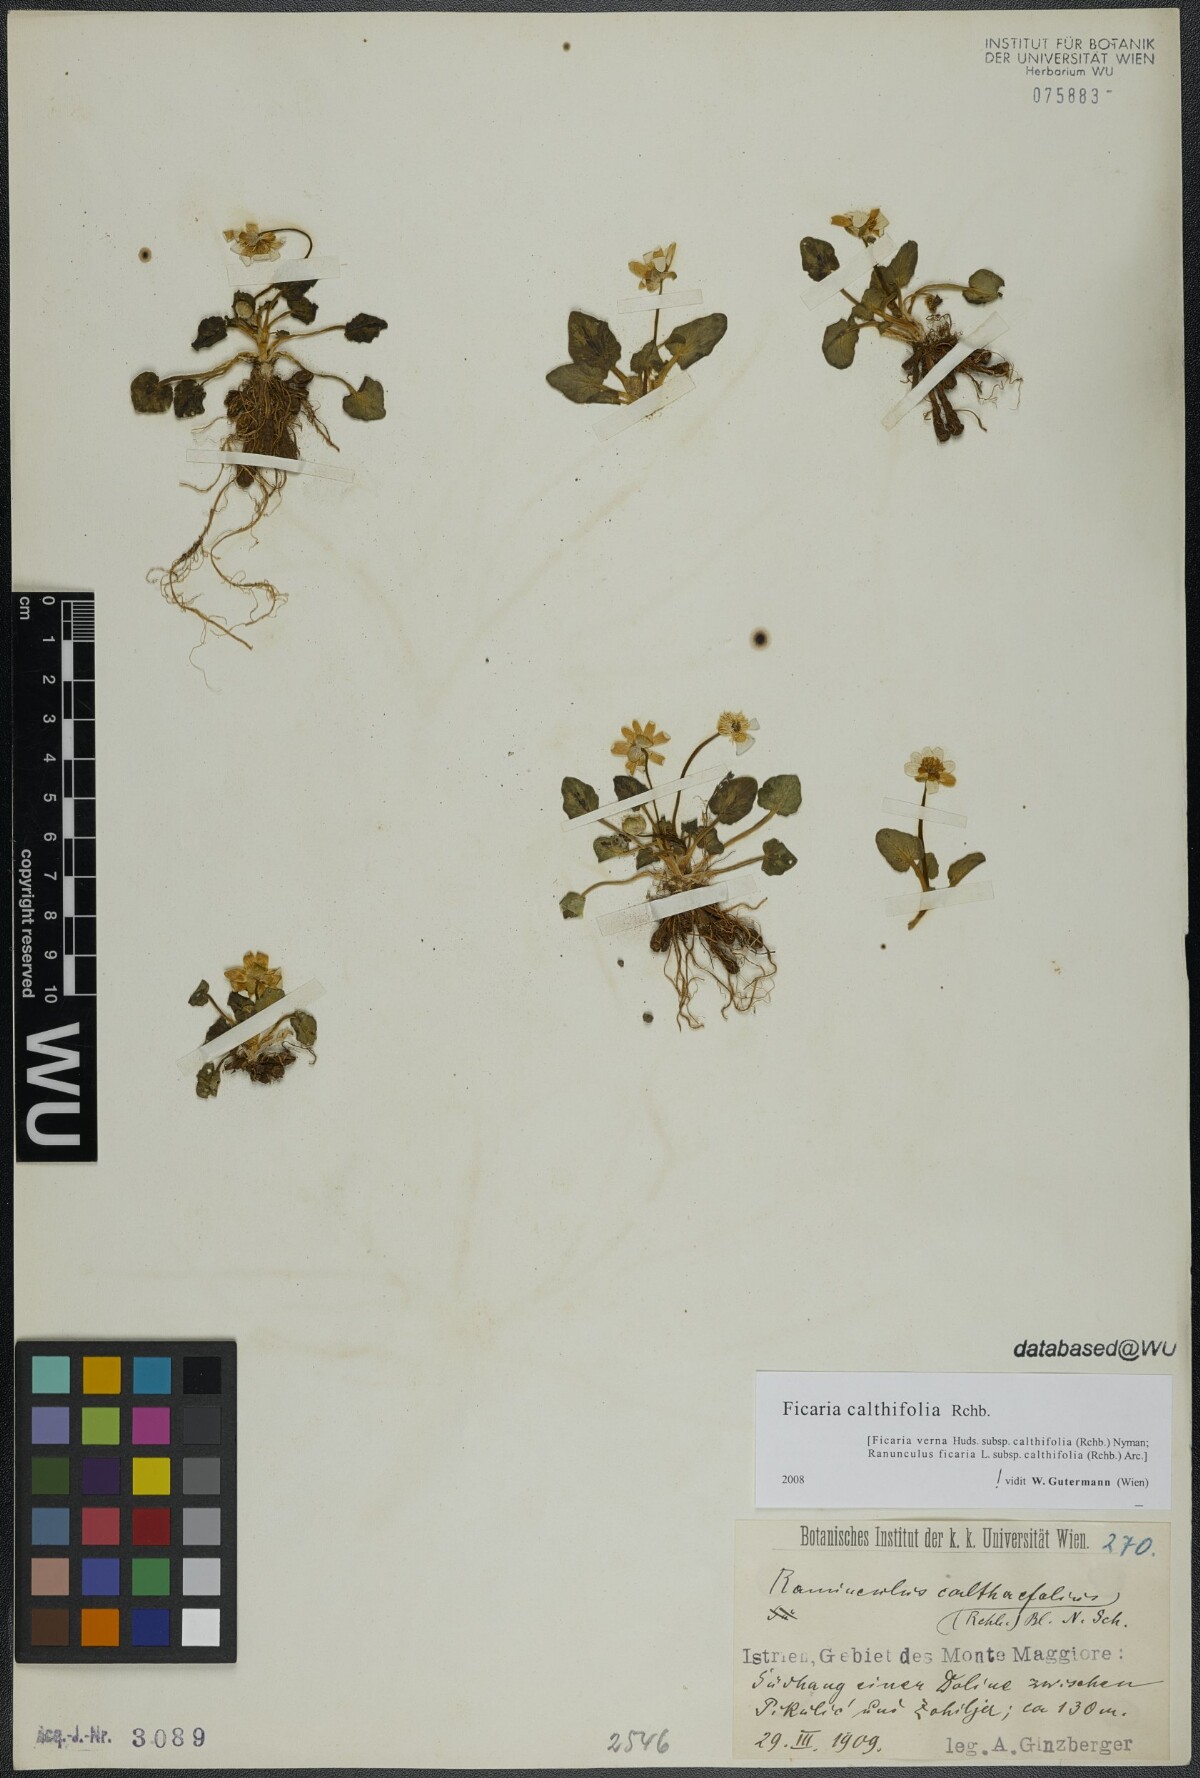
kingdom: Plantae
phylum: Tracheophyta
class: Magnoliopsida
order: Ranunculales
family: Ranunculaceae
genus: Ficaria
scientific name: Ficaria calthifolia
